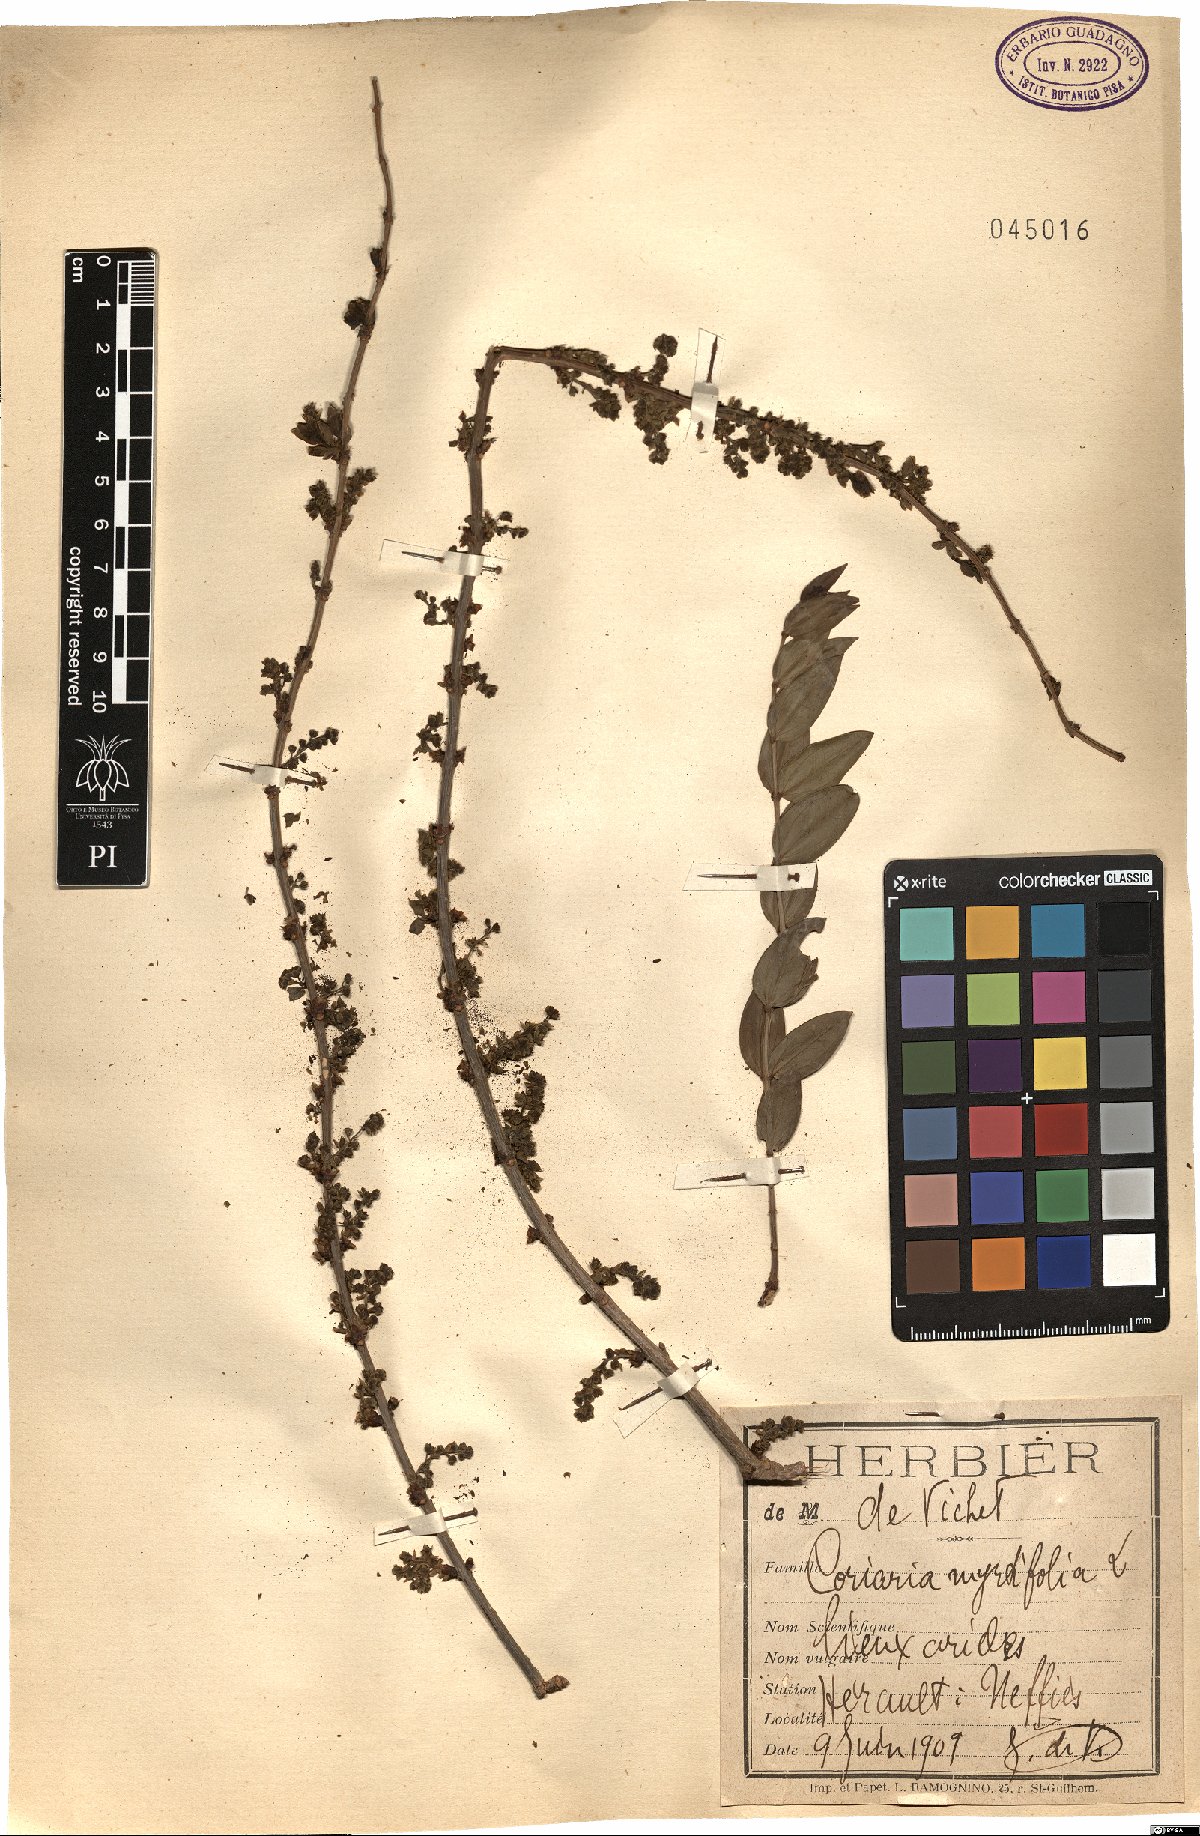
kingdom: Plantae
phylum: Tracheophyta
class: Magnoliopsida
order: Cucurbitales
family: Coriariaceae
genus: Coriaria
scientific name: Coriaria myrtifolia
